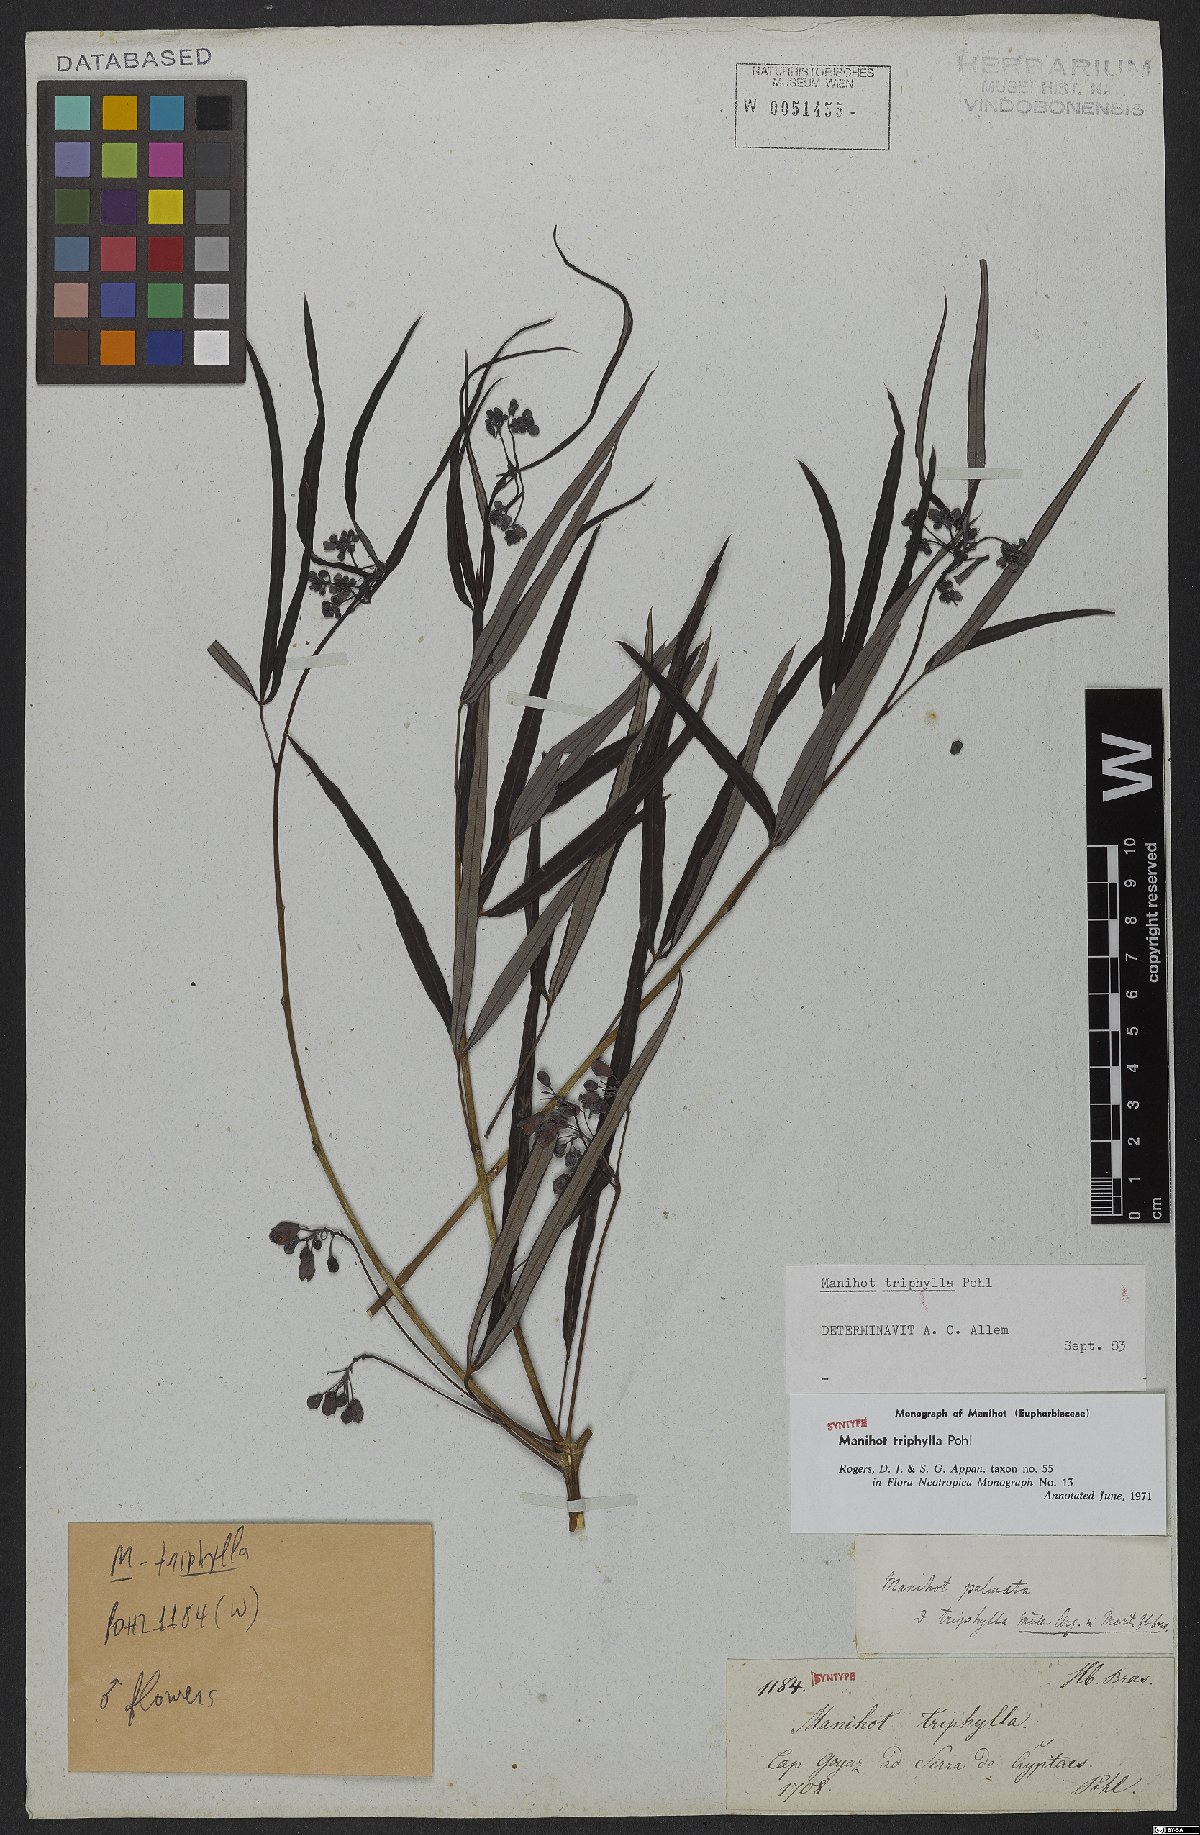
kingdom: Plantae
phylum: Tracheophyta
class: Magnoliopsida
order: Malpighiales
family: Euphorbiaceae
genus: Manihot
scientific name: Manihot triphylla
